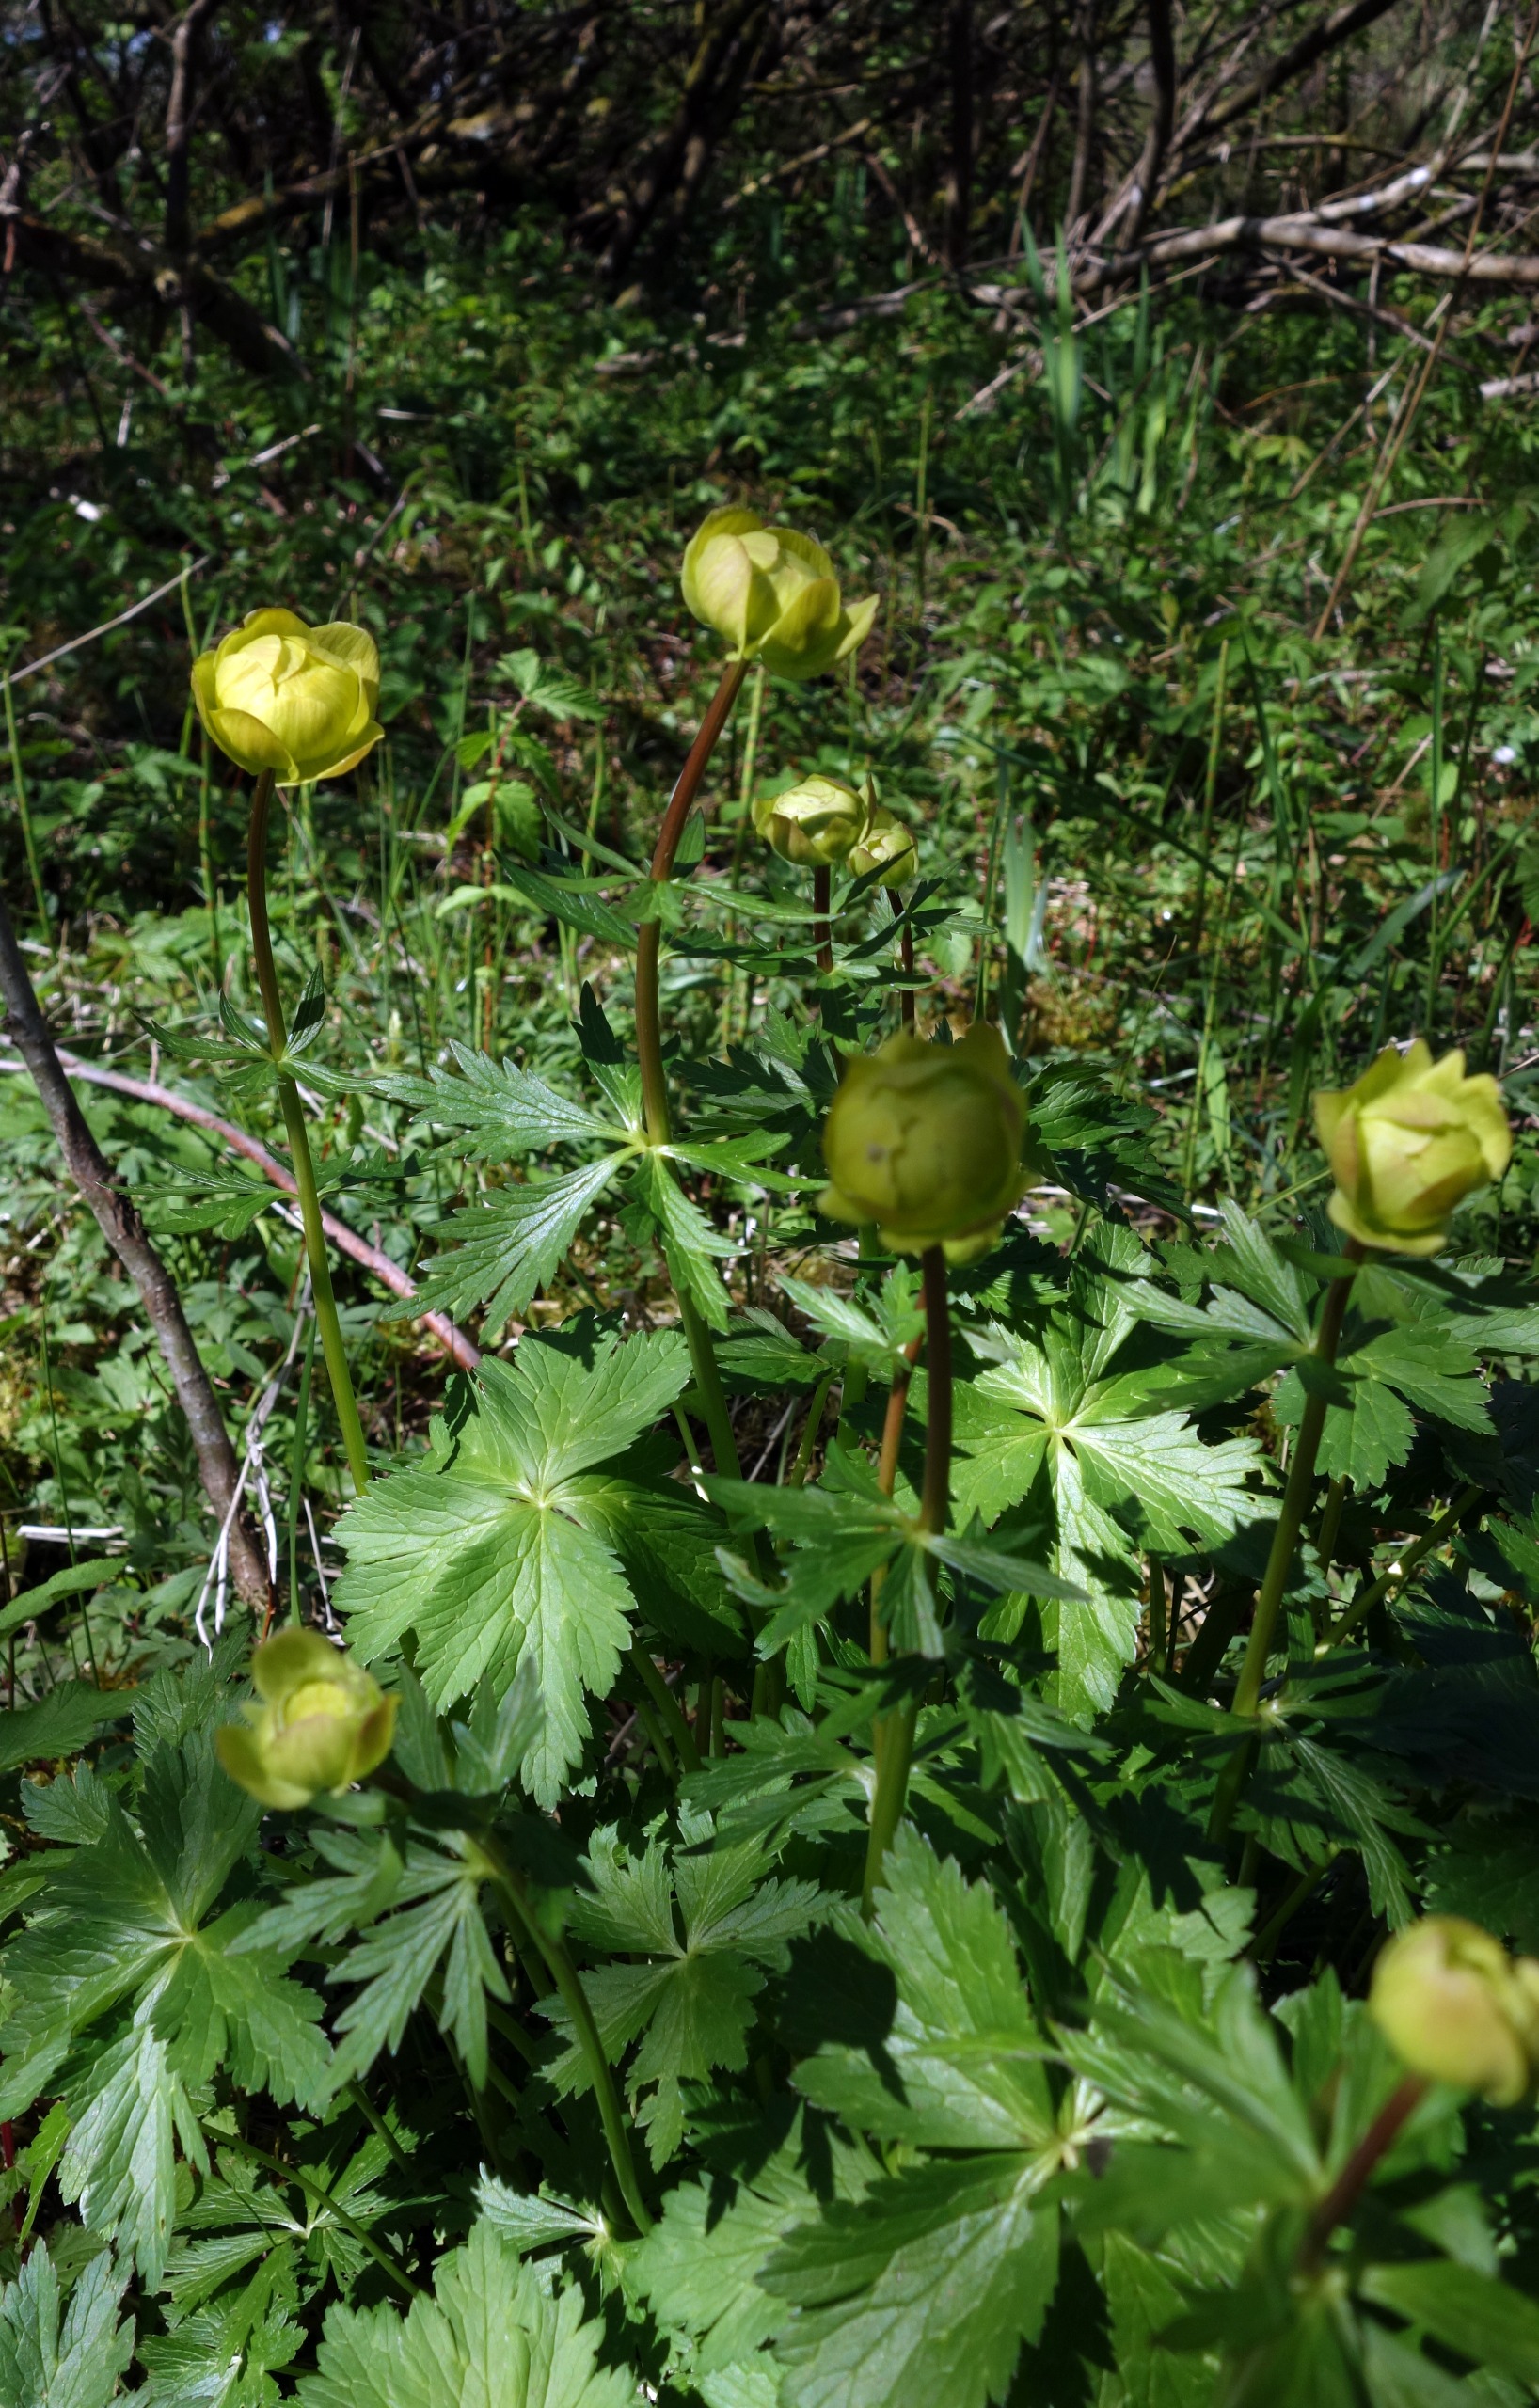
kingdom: Plantae
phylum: Tracheophyta
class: Magnoliopsida
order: Ranunculales
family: Ranunculaceae
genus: Trollius
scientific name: Trollius europaeus
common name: Engblomme
